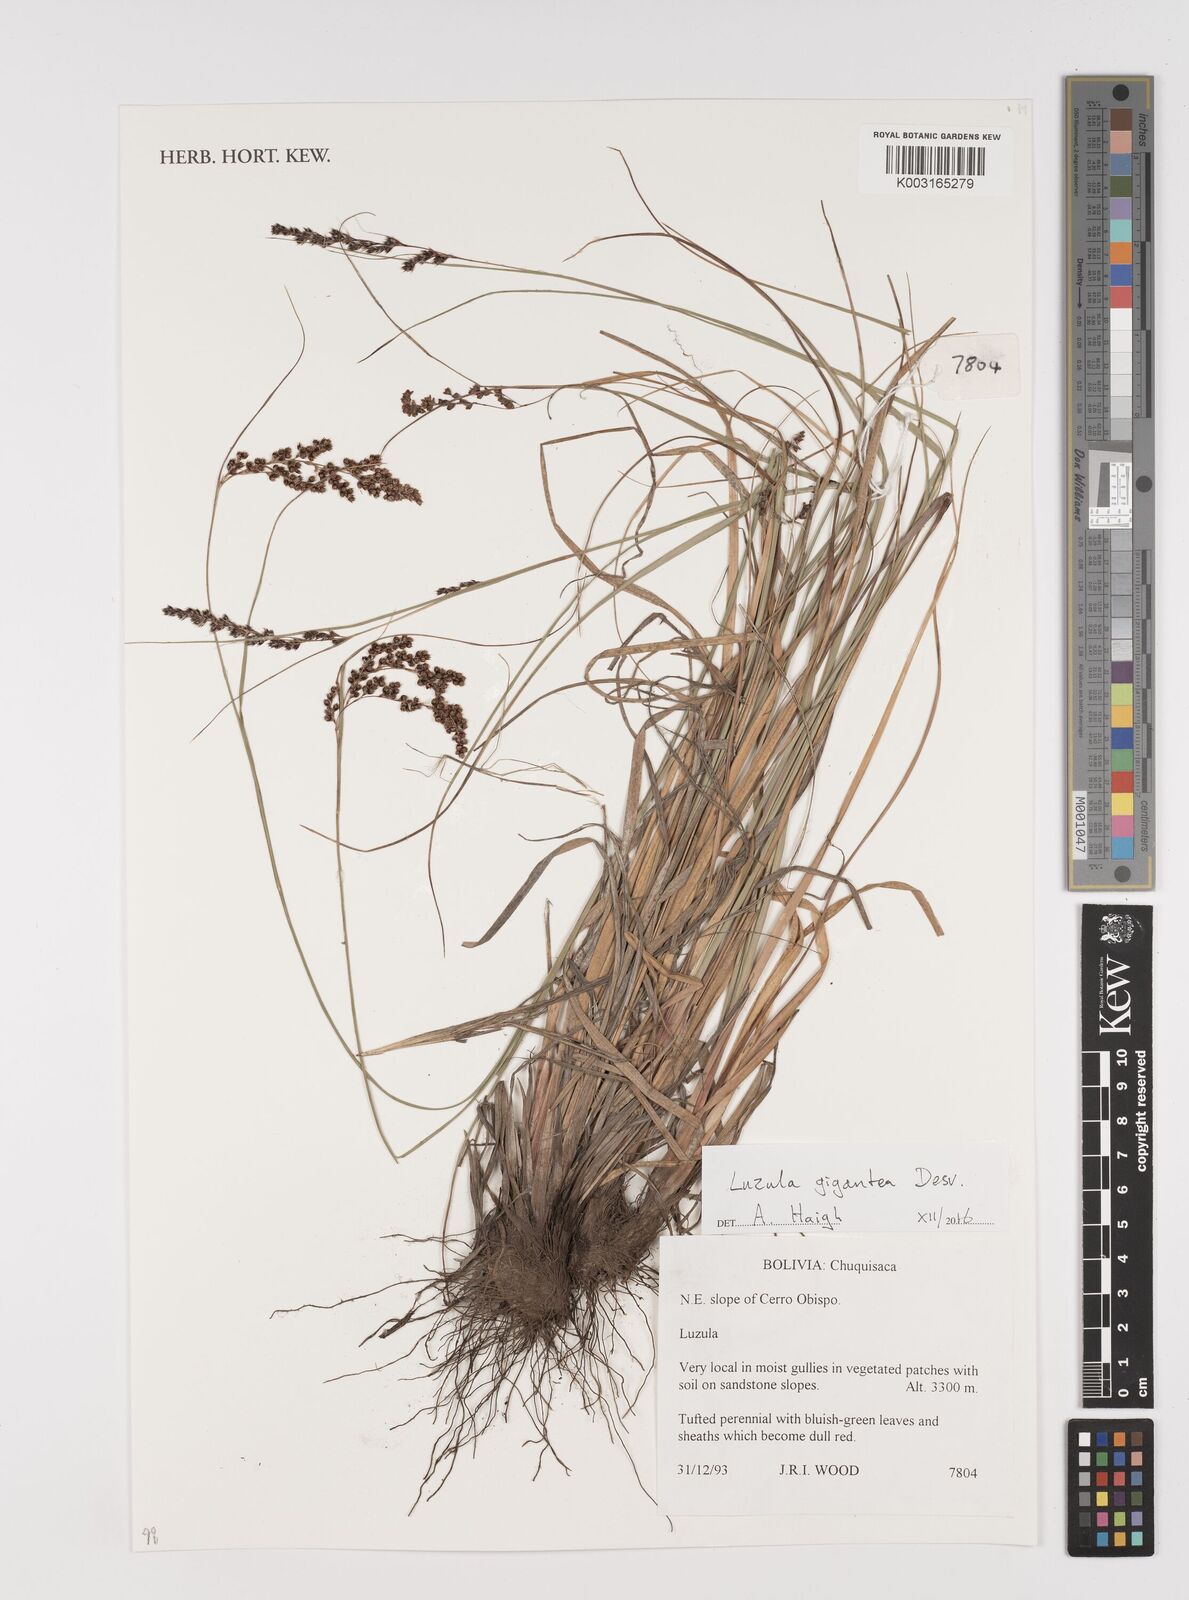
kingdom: Plantae
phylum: Tracheophyta
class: Liliopsida
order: Poales
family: Juncaceae
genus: Luzula
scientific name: Luzula gigantea
